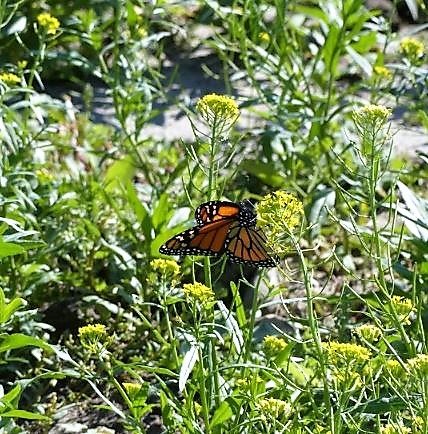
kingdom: Animalia
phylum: Arthropoda
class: Insecta
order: Lepidoptera
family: Nymphalidae
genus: Danaus
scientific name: Danaus plexippus
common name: Monarch
